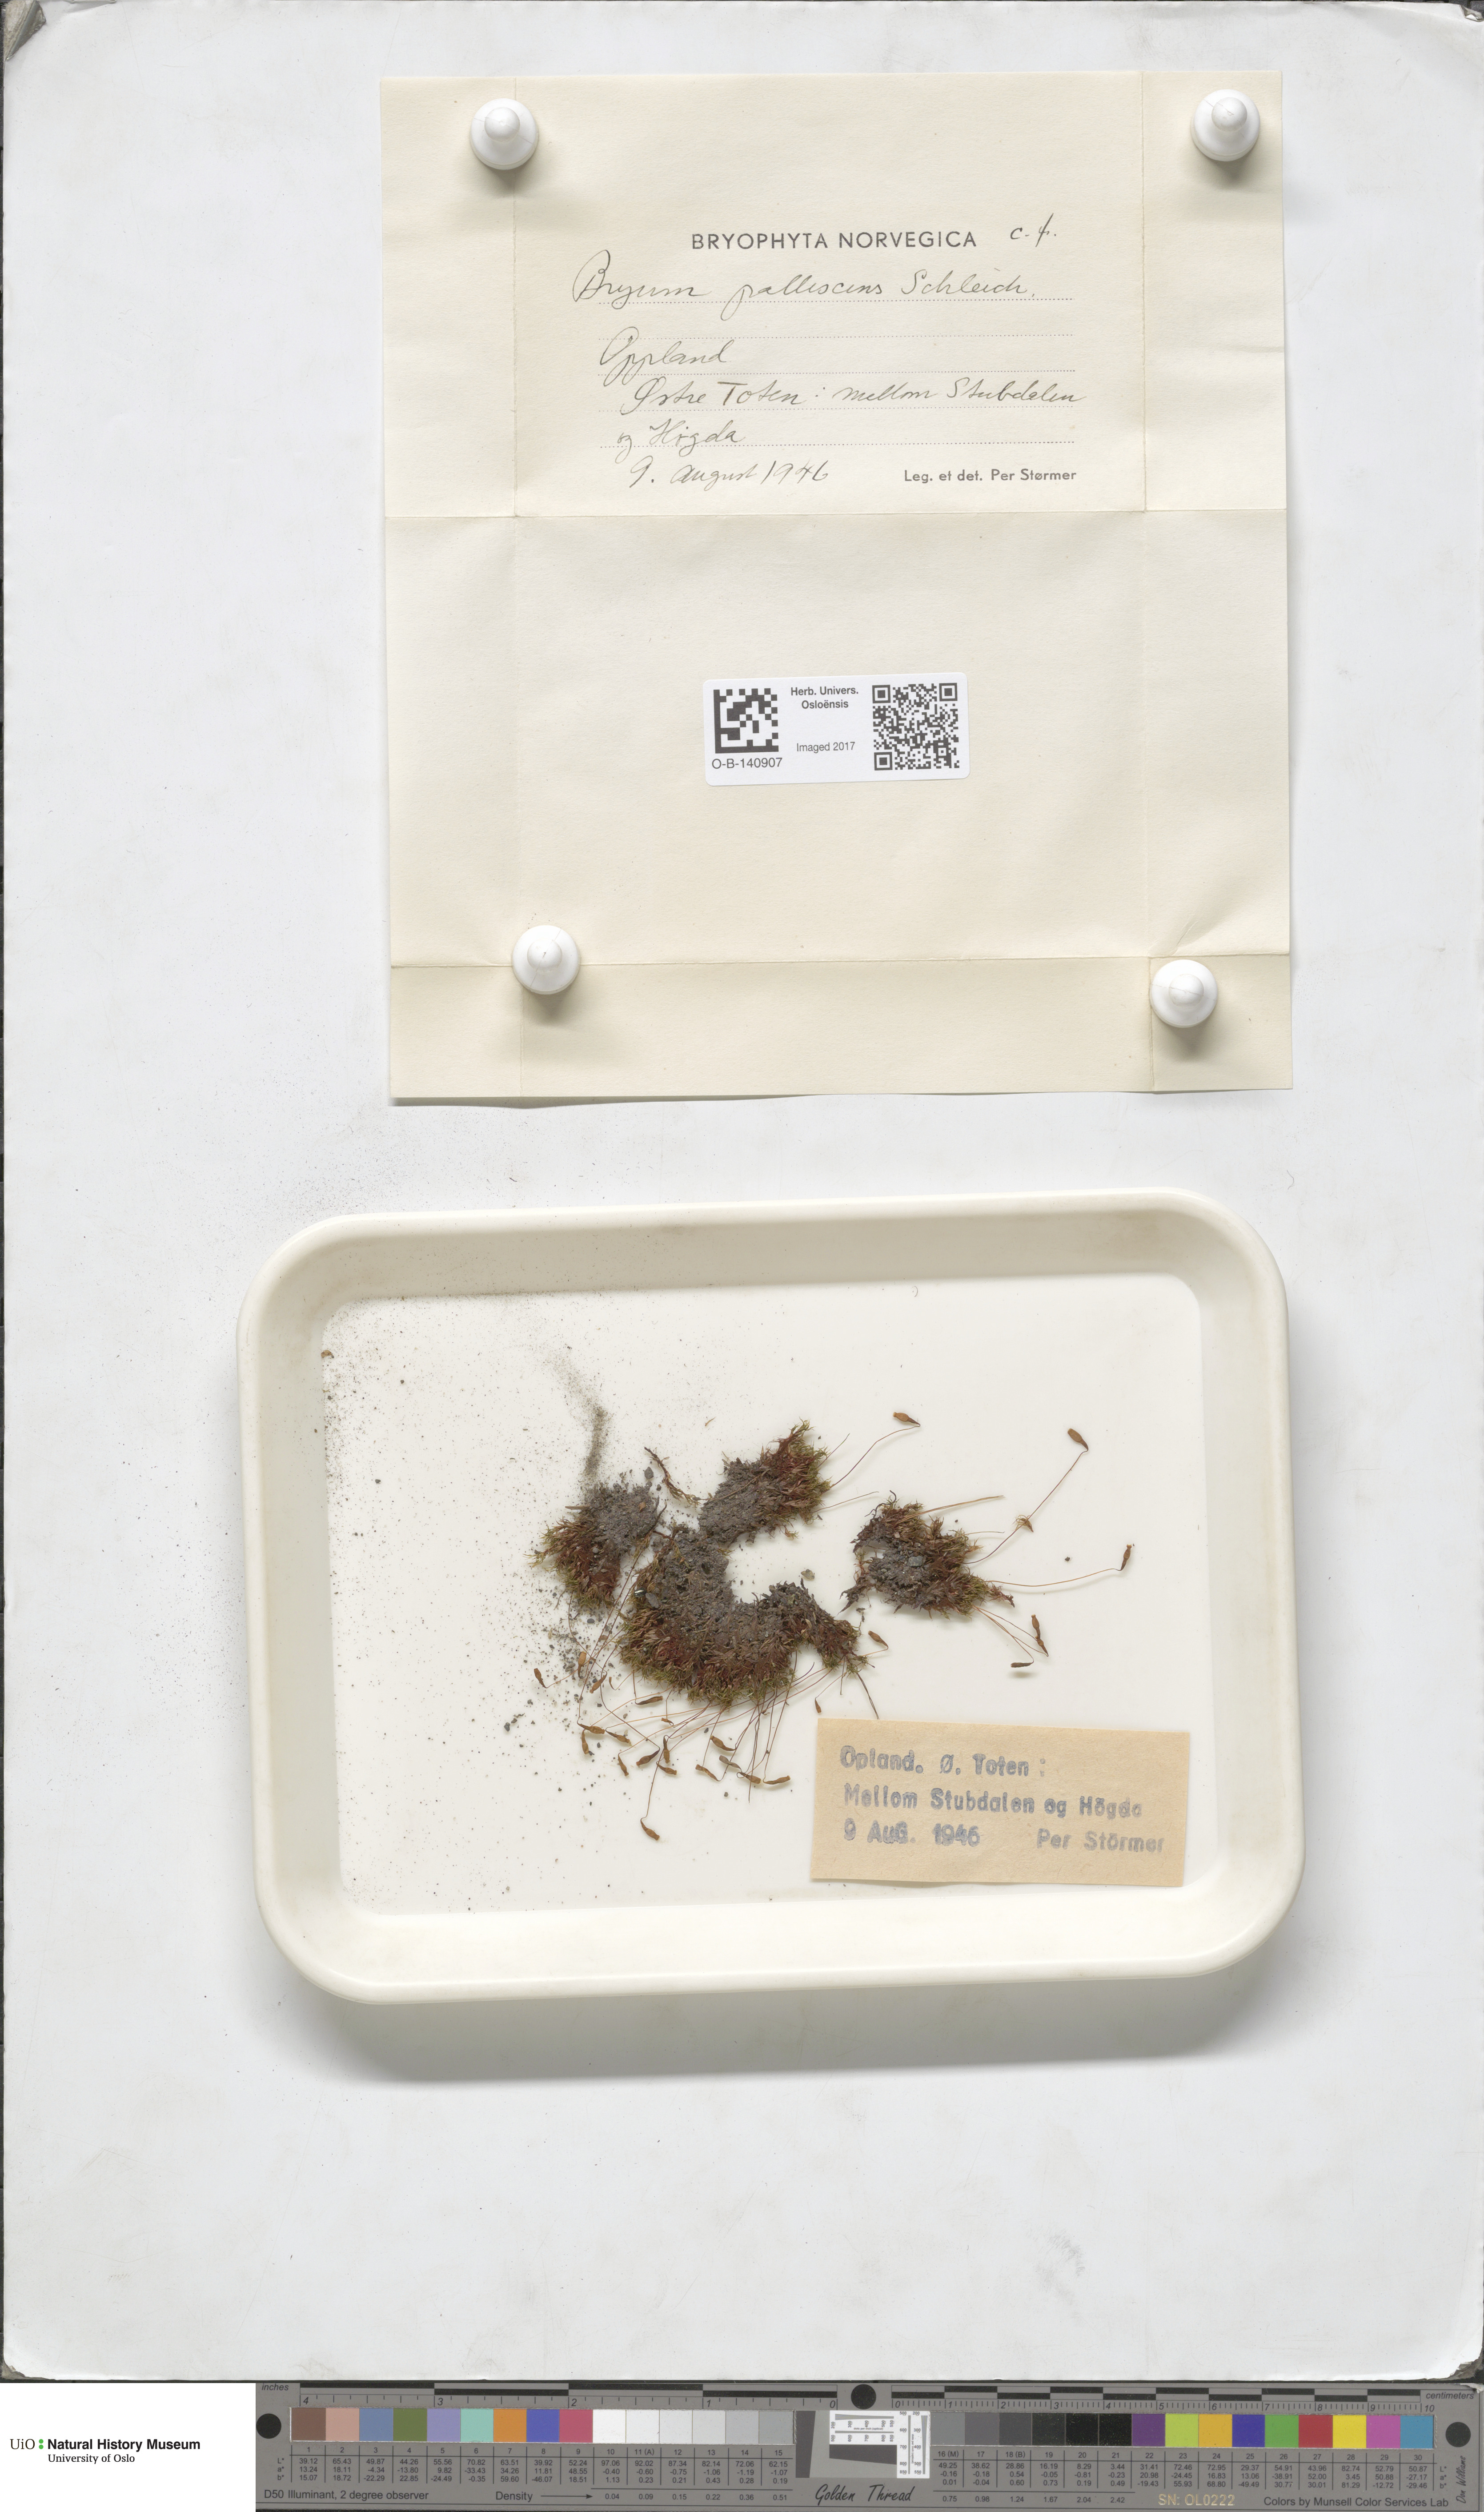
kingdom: Plantae
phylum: Bryophyta
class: Bryopsida
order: Bryales
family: Bryaceae
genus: Ptychostomum
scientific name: Ptychostomum pallescens
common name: Tall-clustered thread-moss
